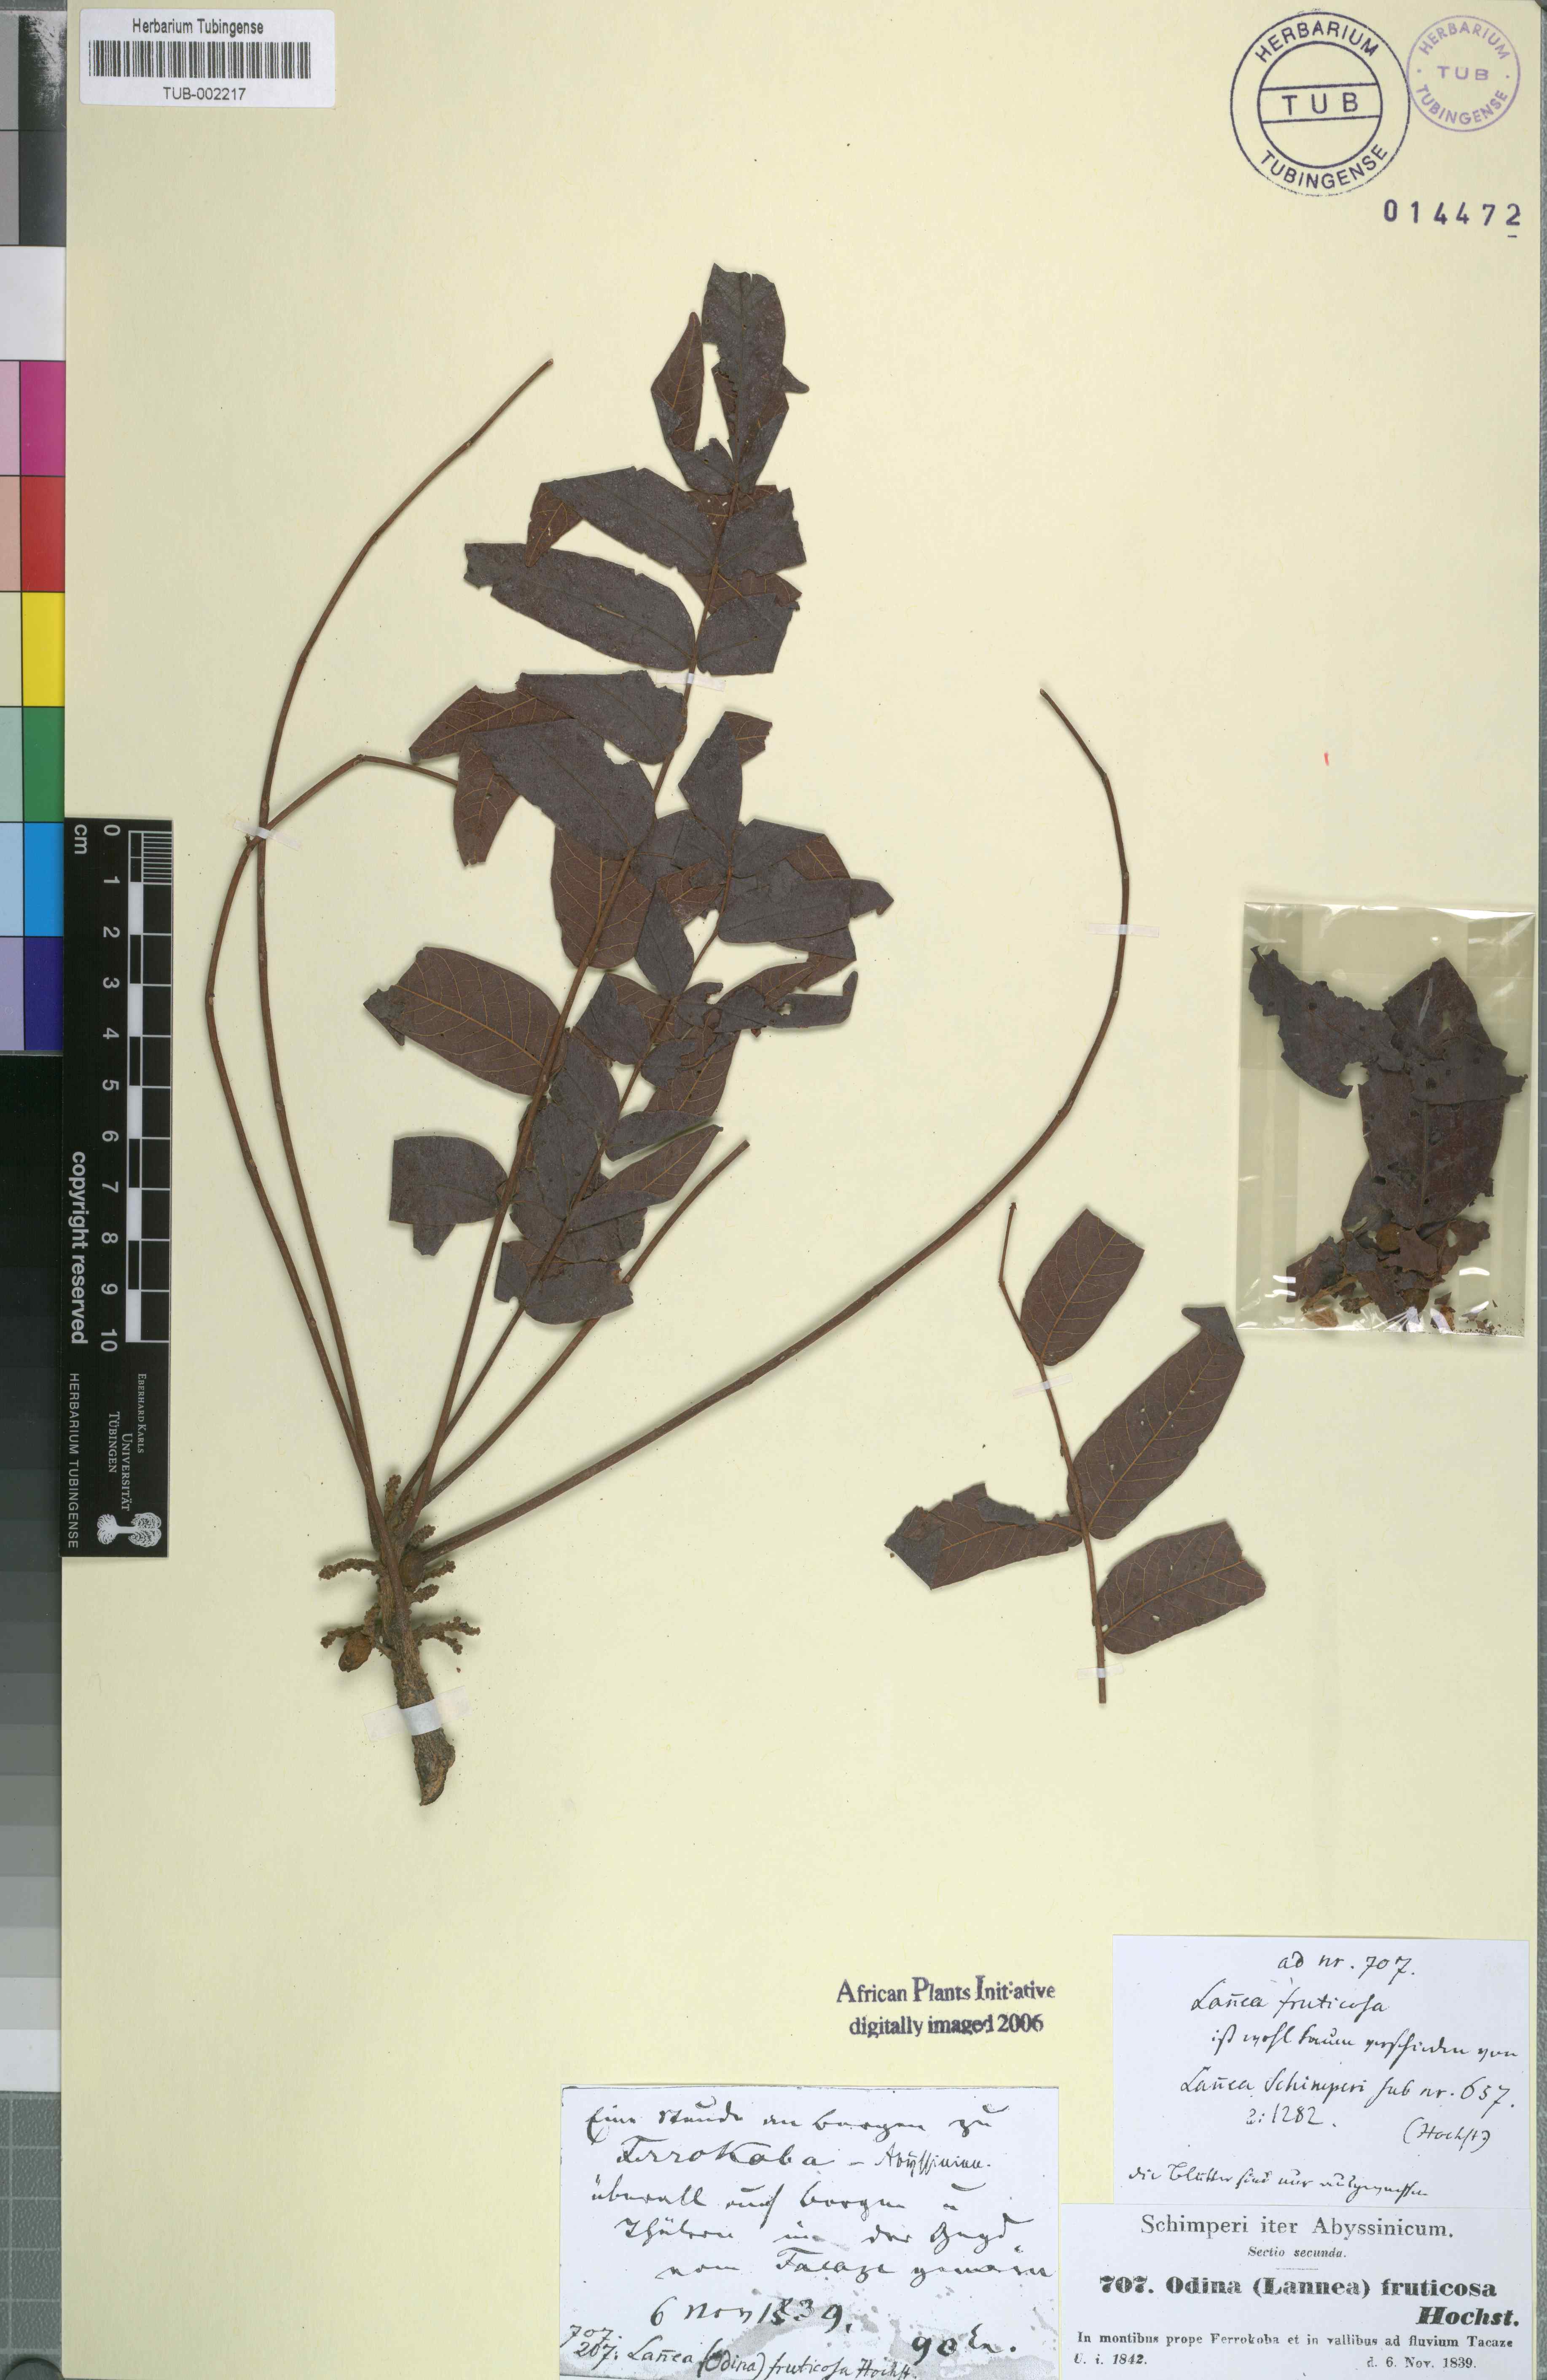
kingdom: Plantae
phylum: Tracheophyta
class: Magnoliopsida
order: Sapindales
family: Anacardiaceae
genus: Lannea
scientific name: Lannea fruticosa
